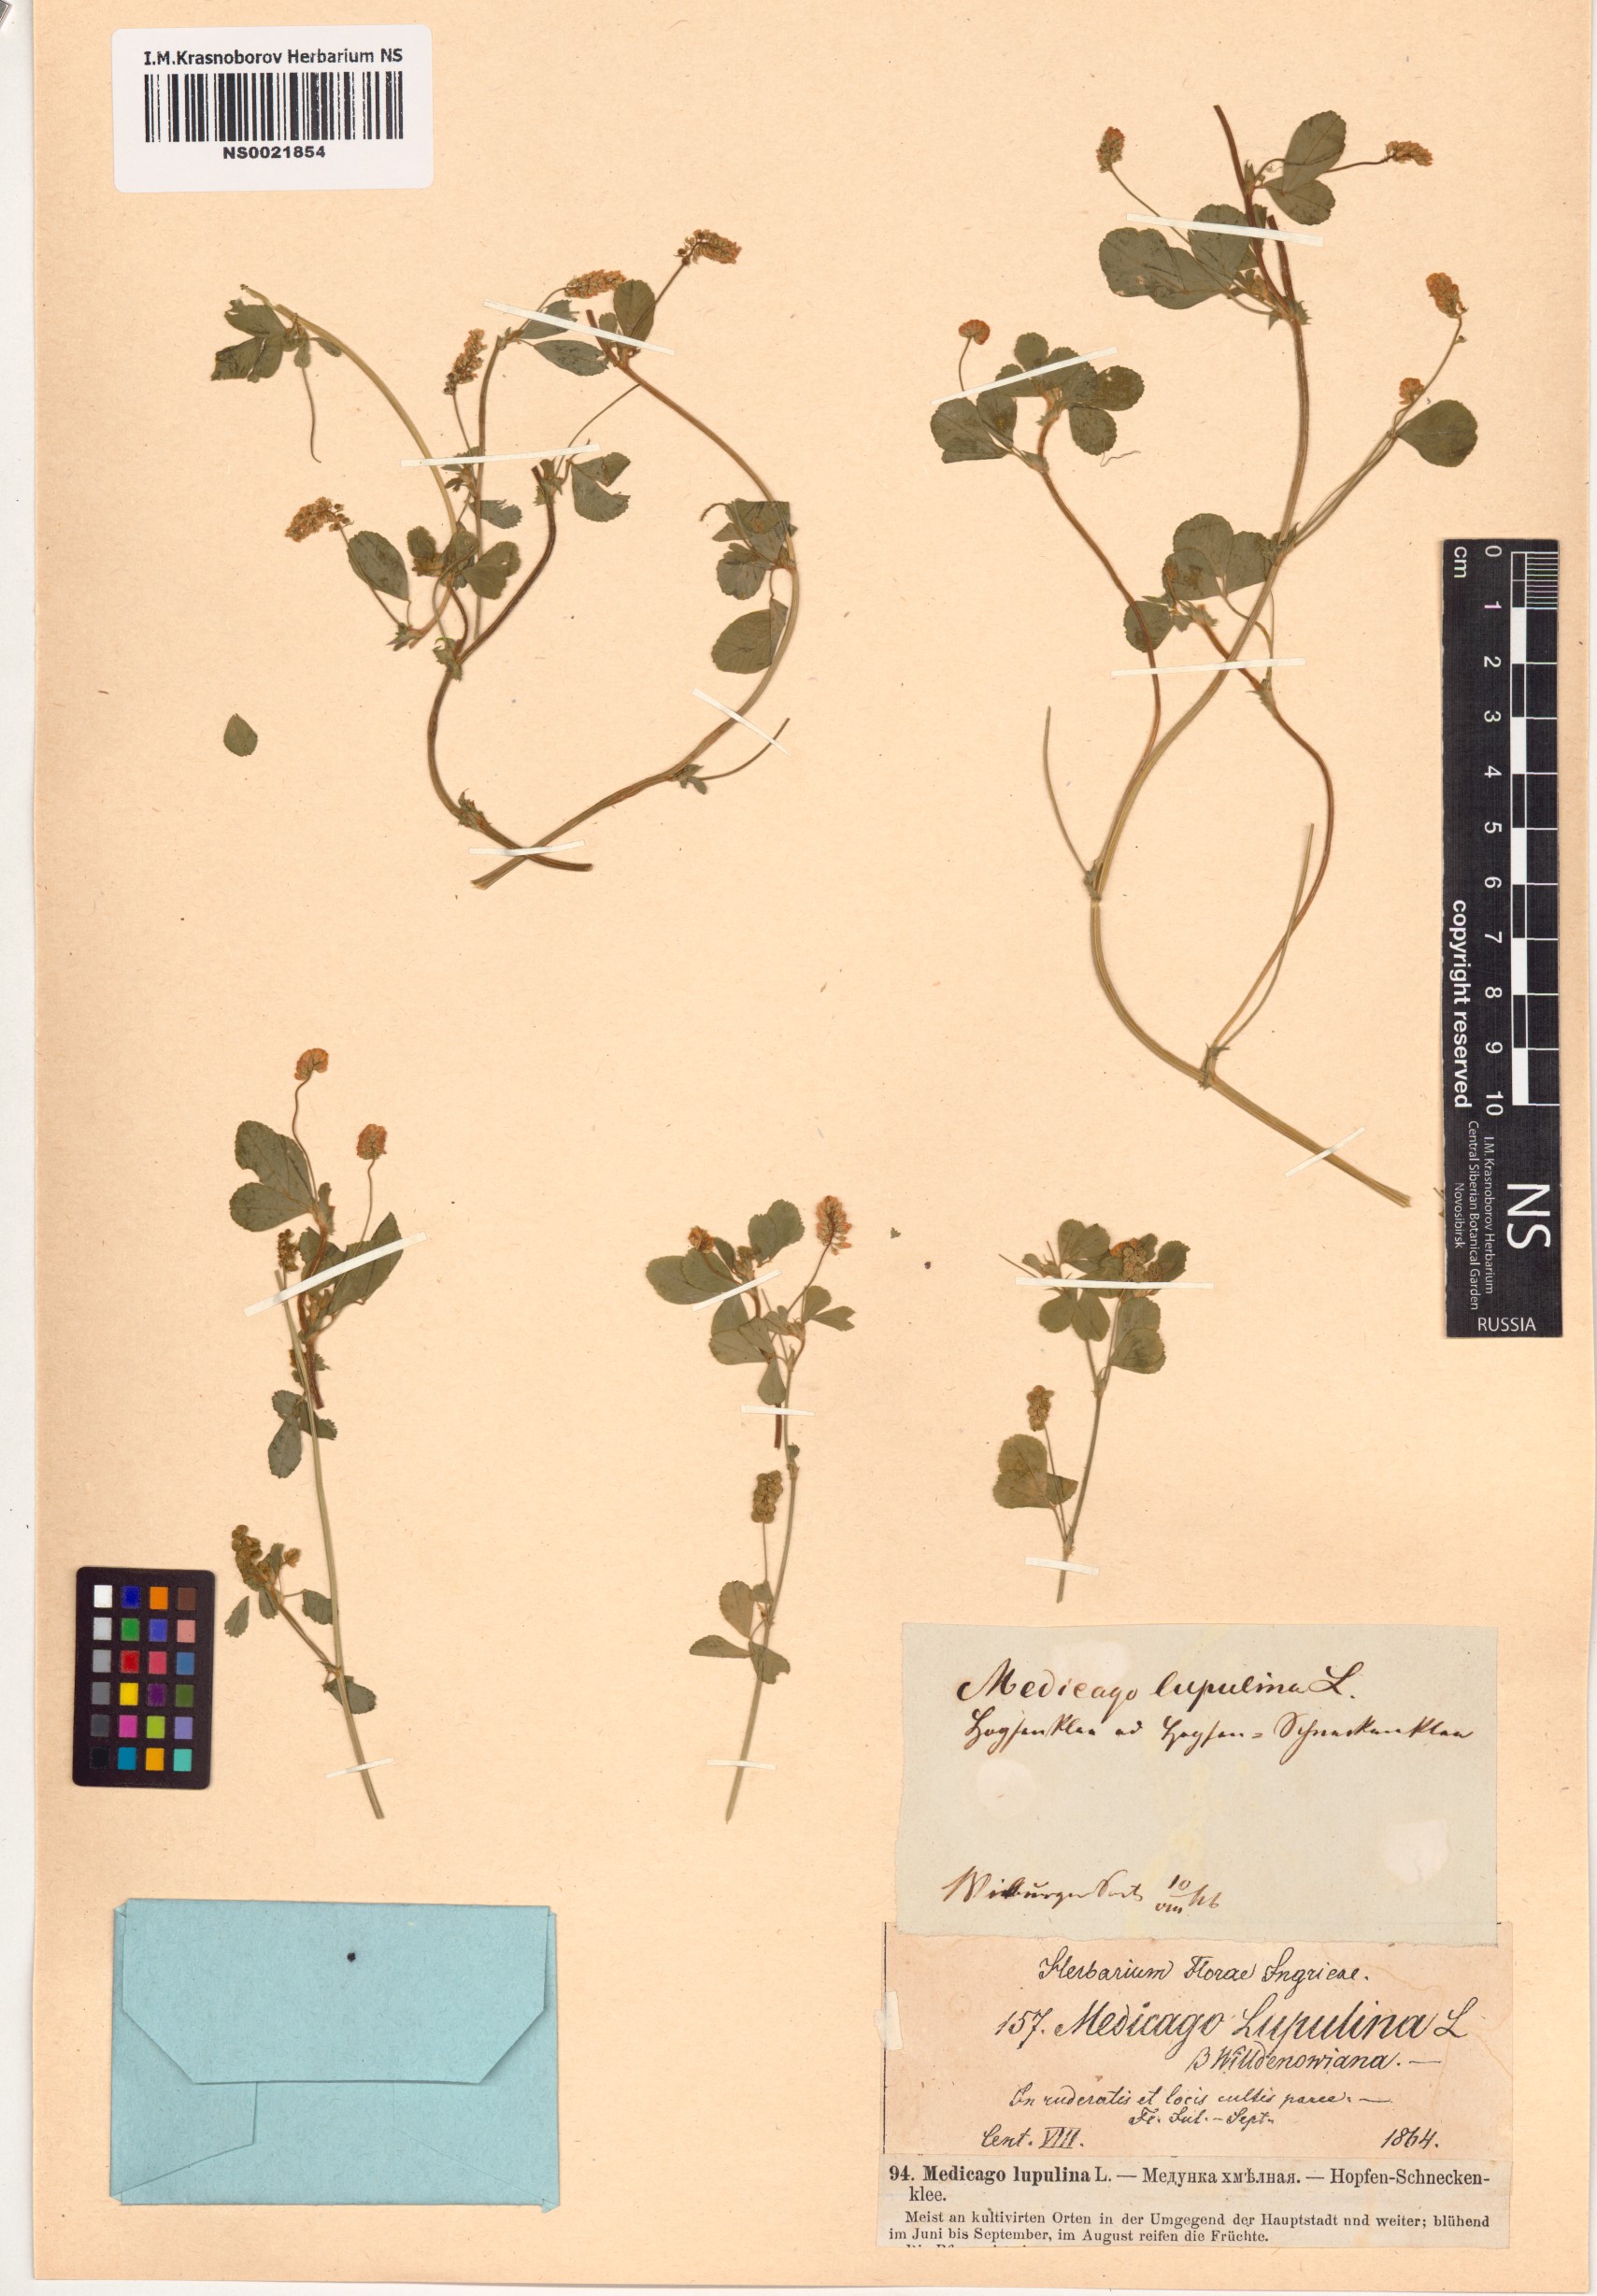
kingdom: Plantae
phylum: Tracheophyta
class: Magnoliopsida
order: Fabales
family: Fabaceae
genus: Medicago
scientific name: Medicago lupulina
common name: Black medick
